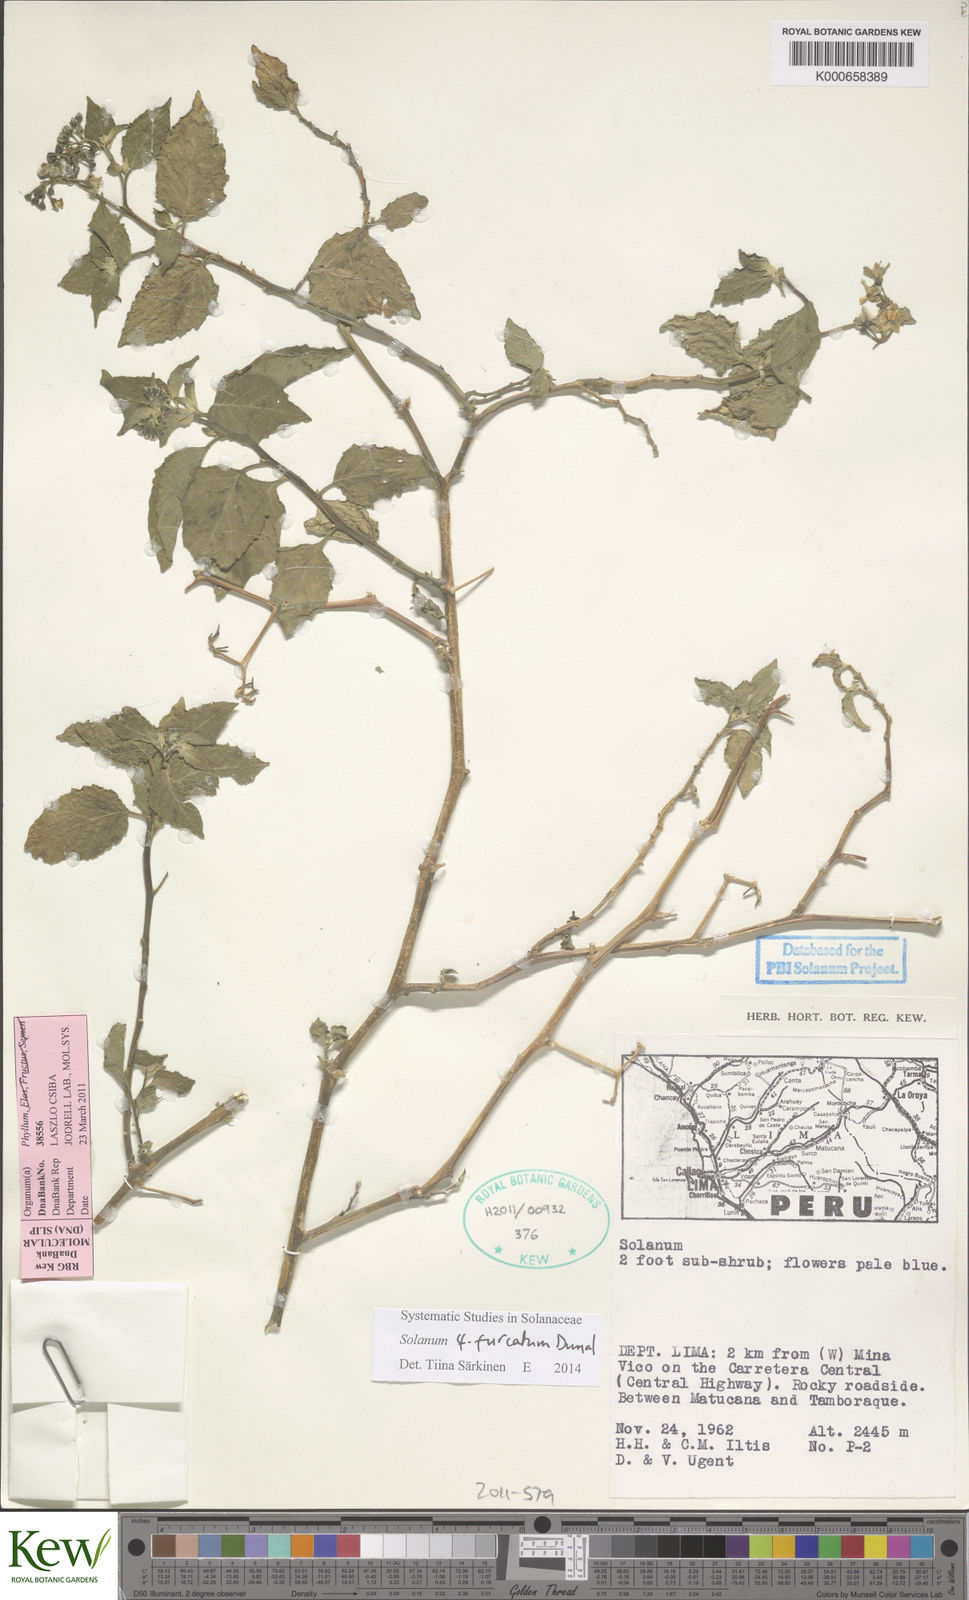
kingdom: Plantae
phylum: Tracheophyta
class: Magnoliopsida
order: Solanales
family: Solanaceae
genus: Solanum
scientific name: Solanum pentlandii
